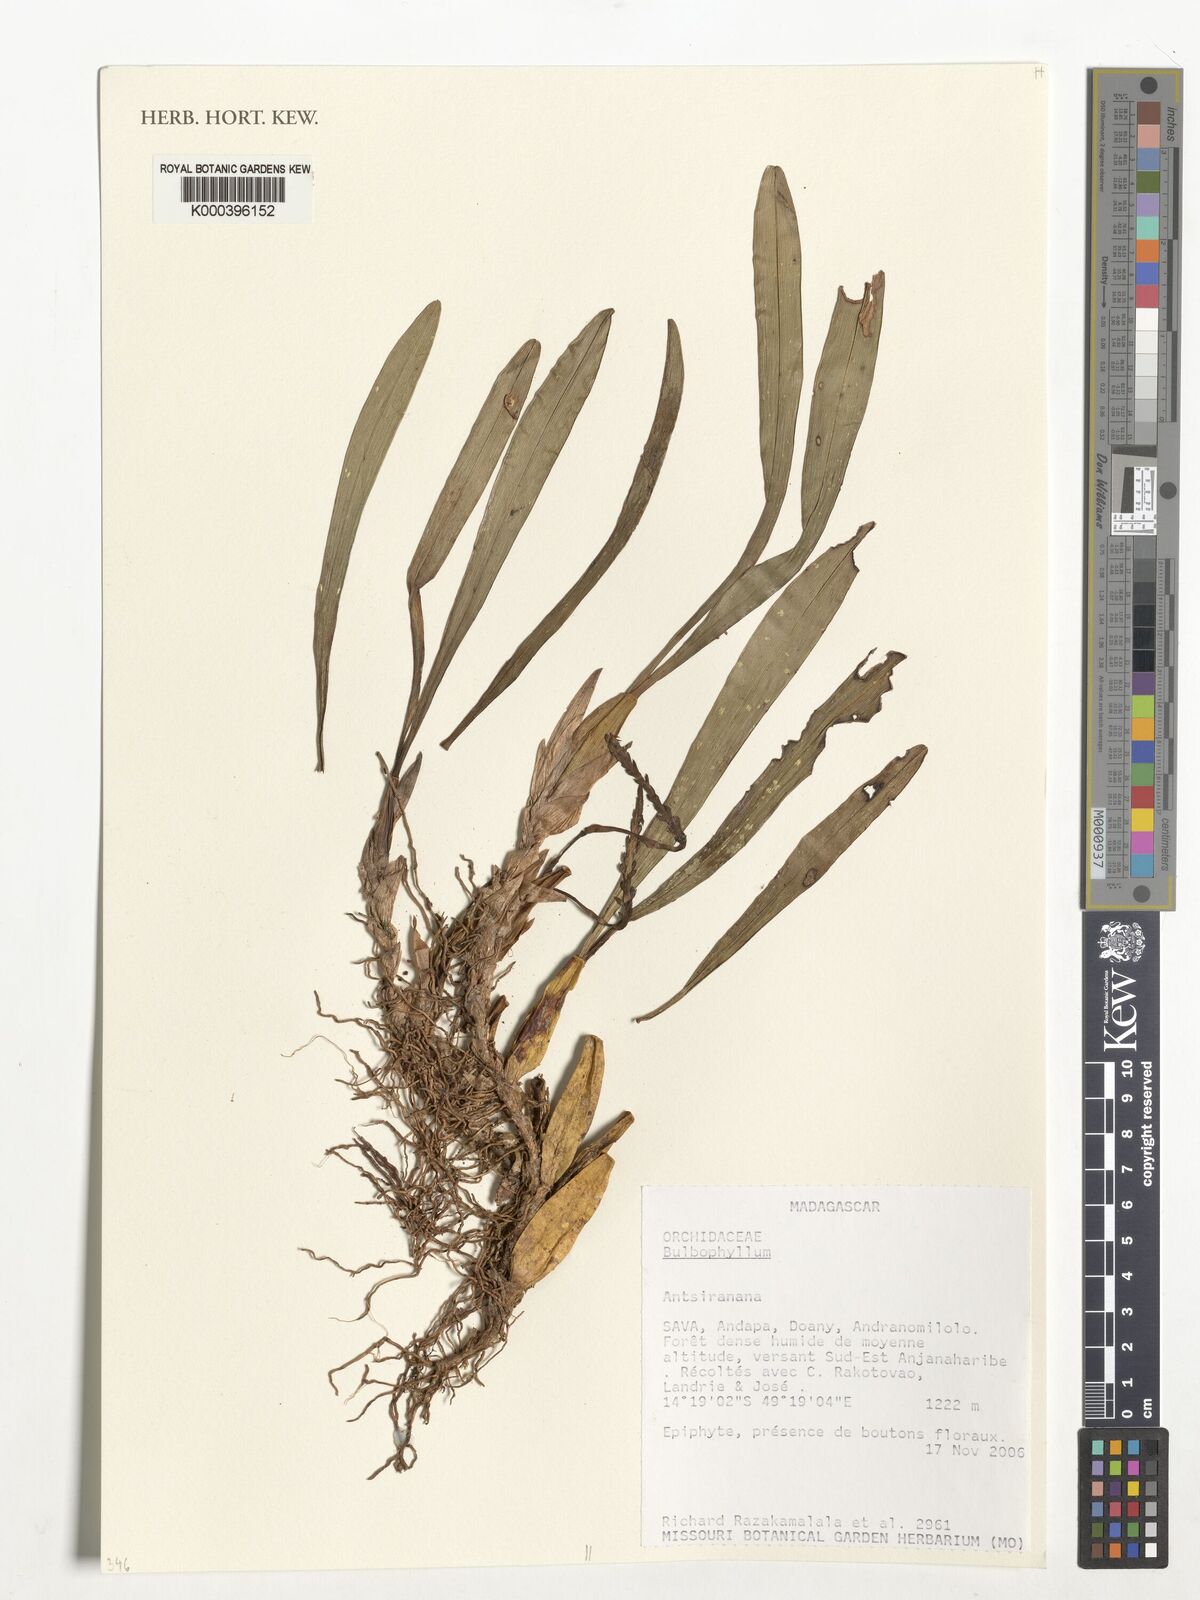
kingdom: Plantae
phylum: Tracheophyta
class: Liliopsida
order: Asparagales
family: Orchidaceae
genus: Bulbophyllum
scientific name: Bulbophyllum
